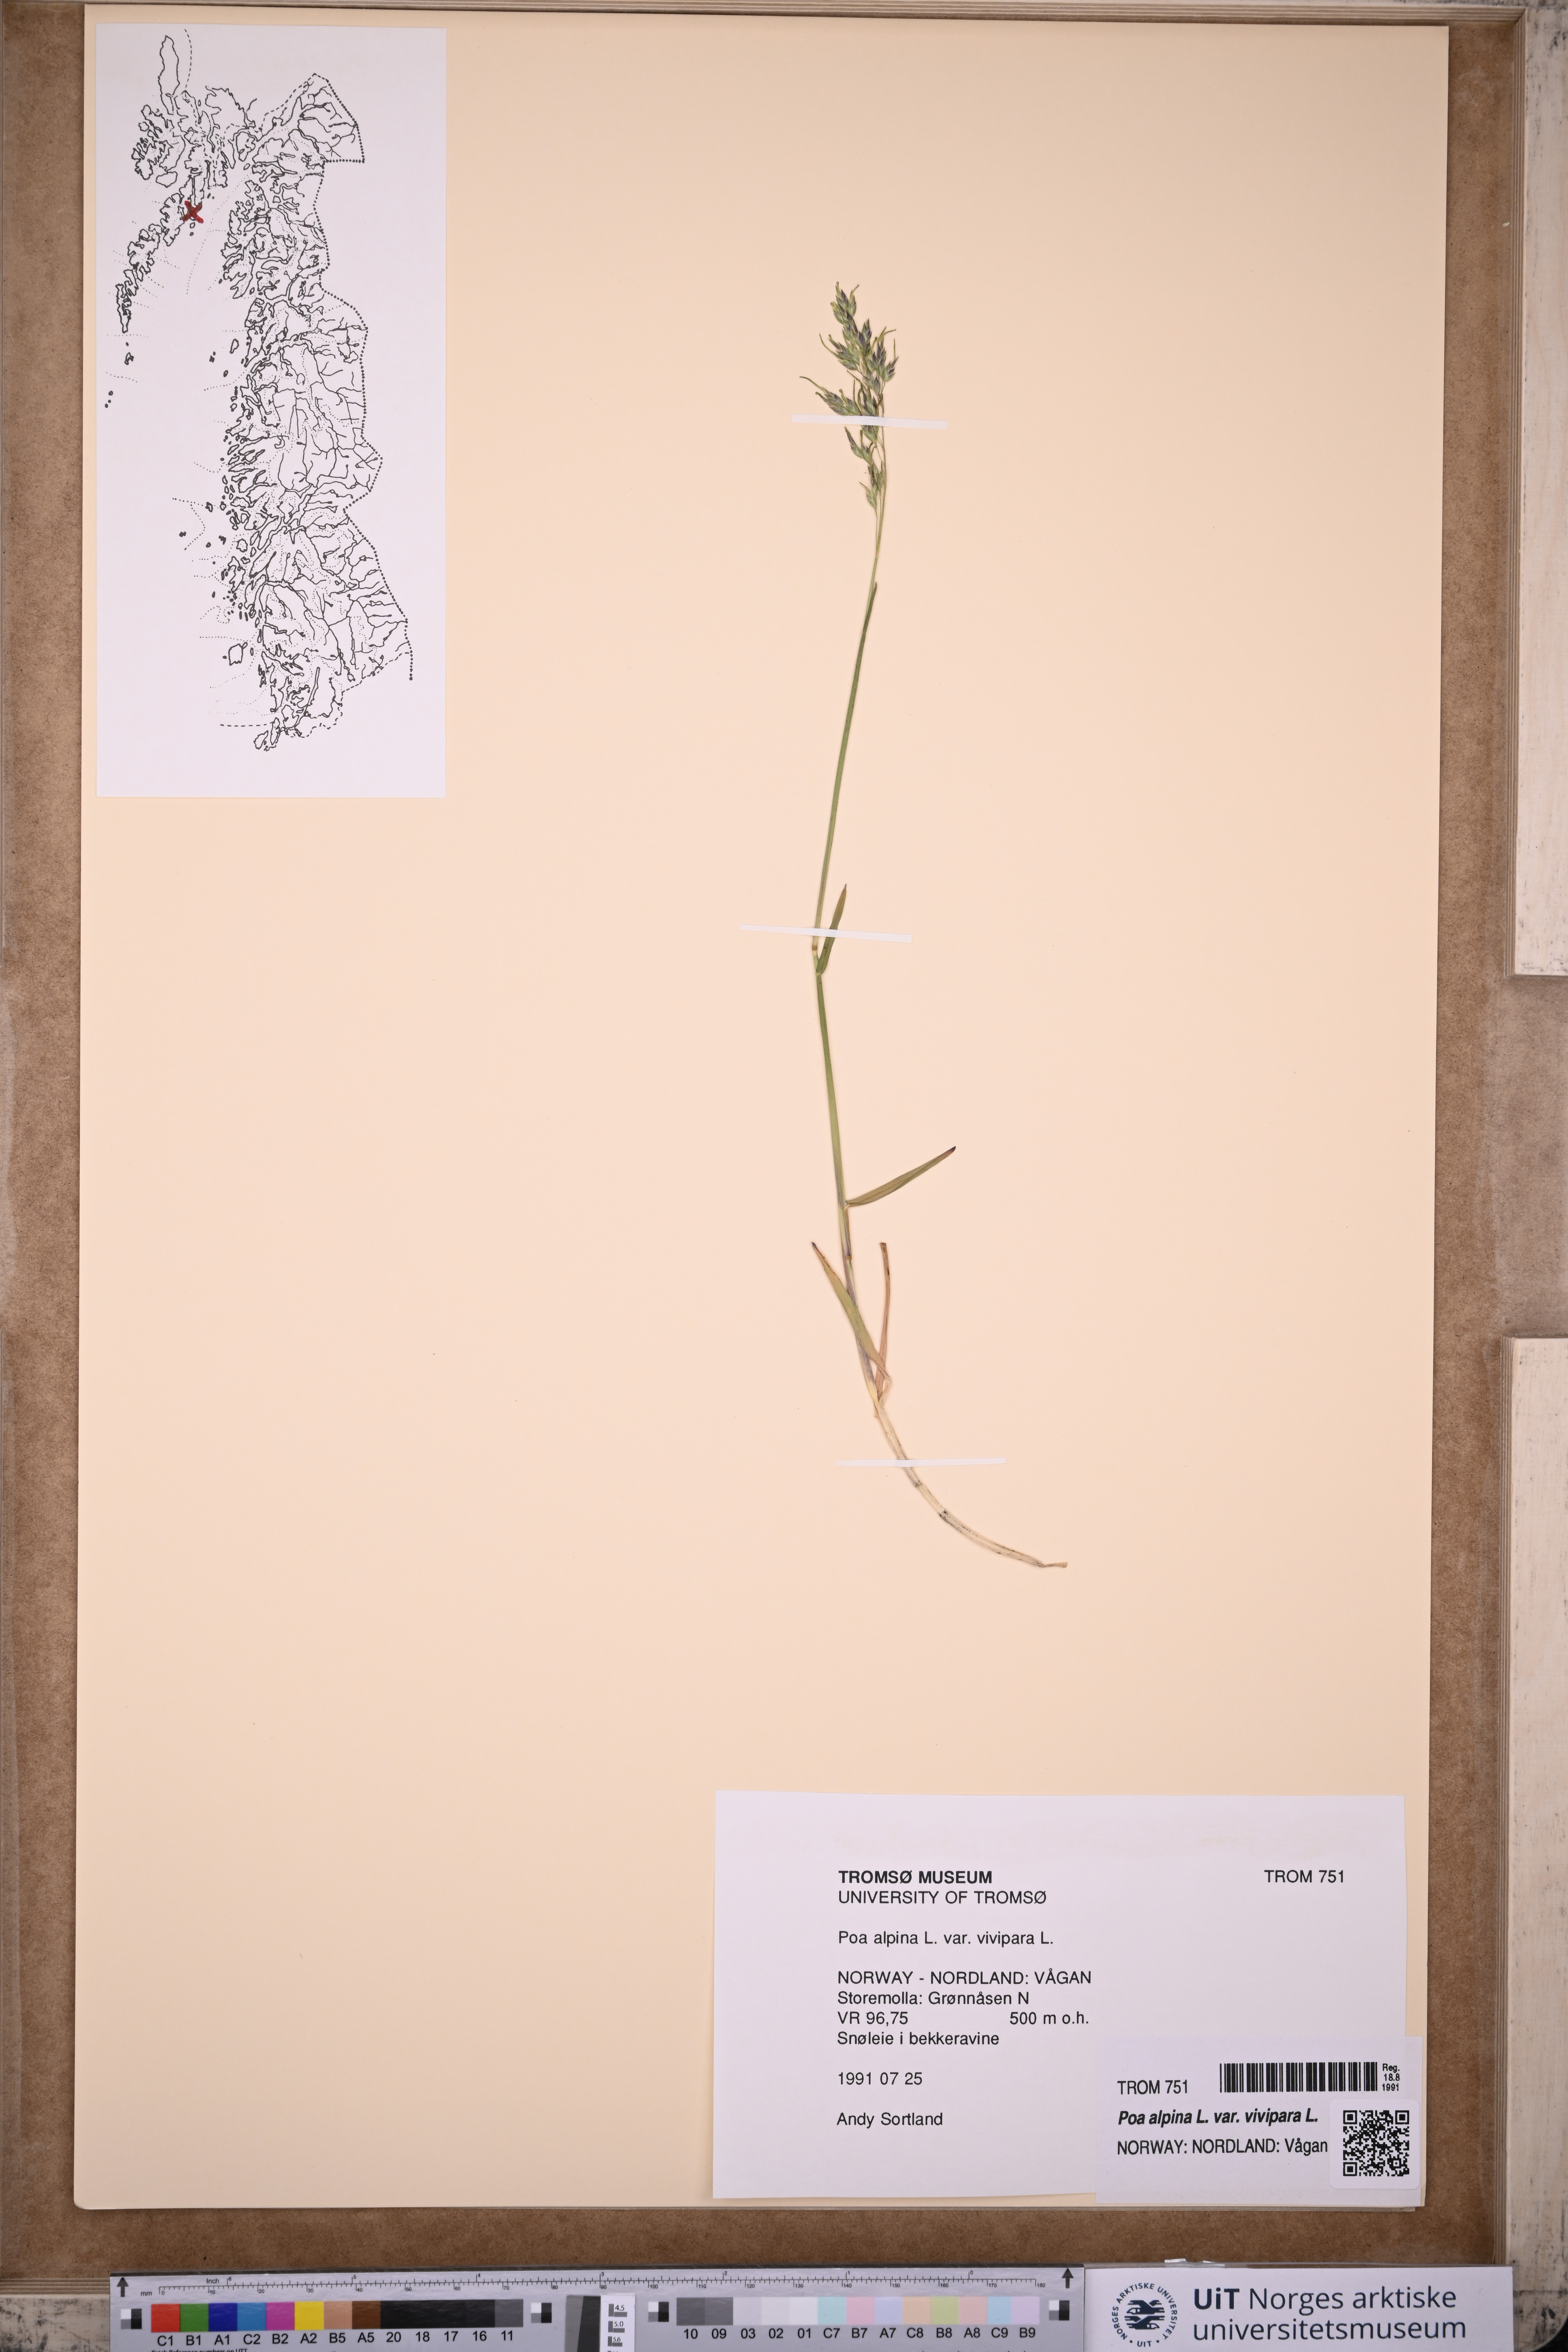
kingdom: Plantae
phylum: Tracheophyta
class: Liliopsida
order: Poales
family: Poaceae
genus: Poa
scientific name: Poa alpina
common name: Alpine bluegrass
